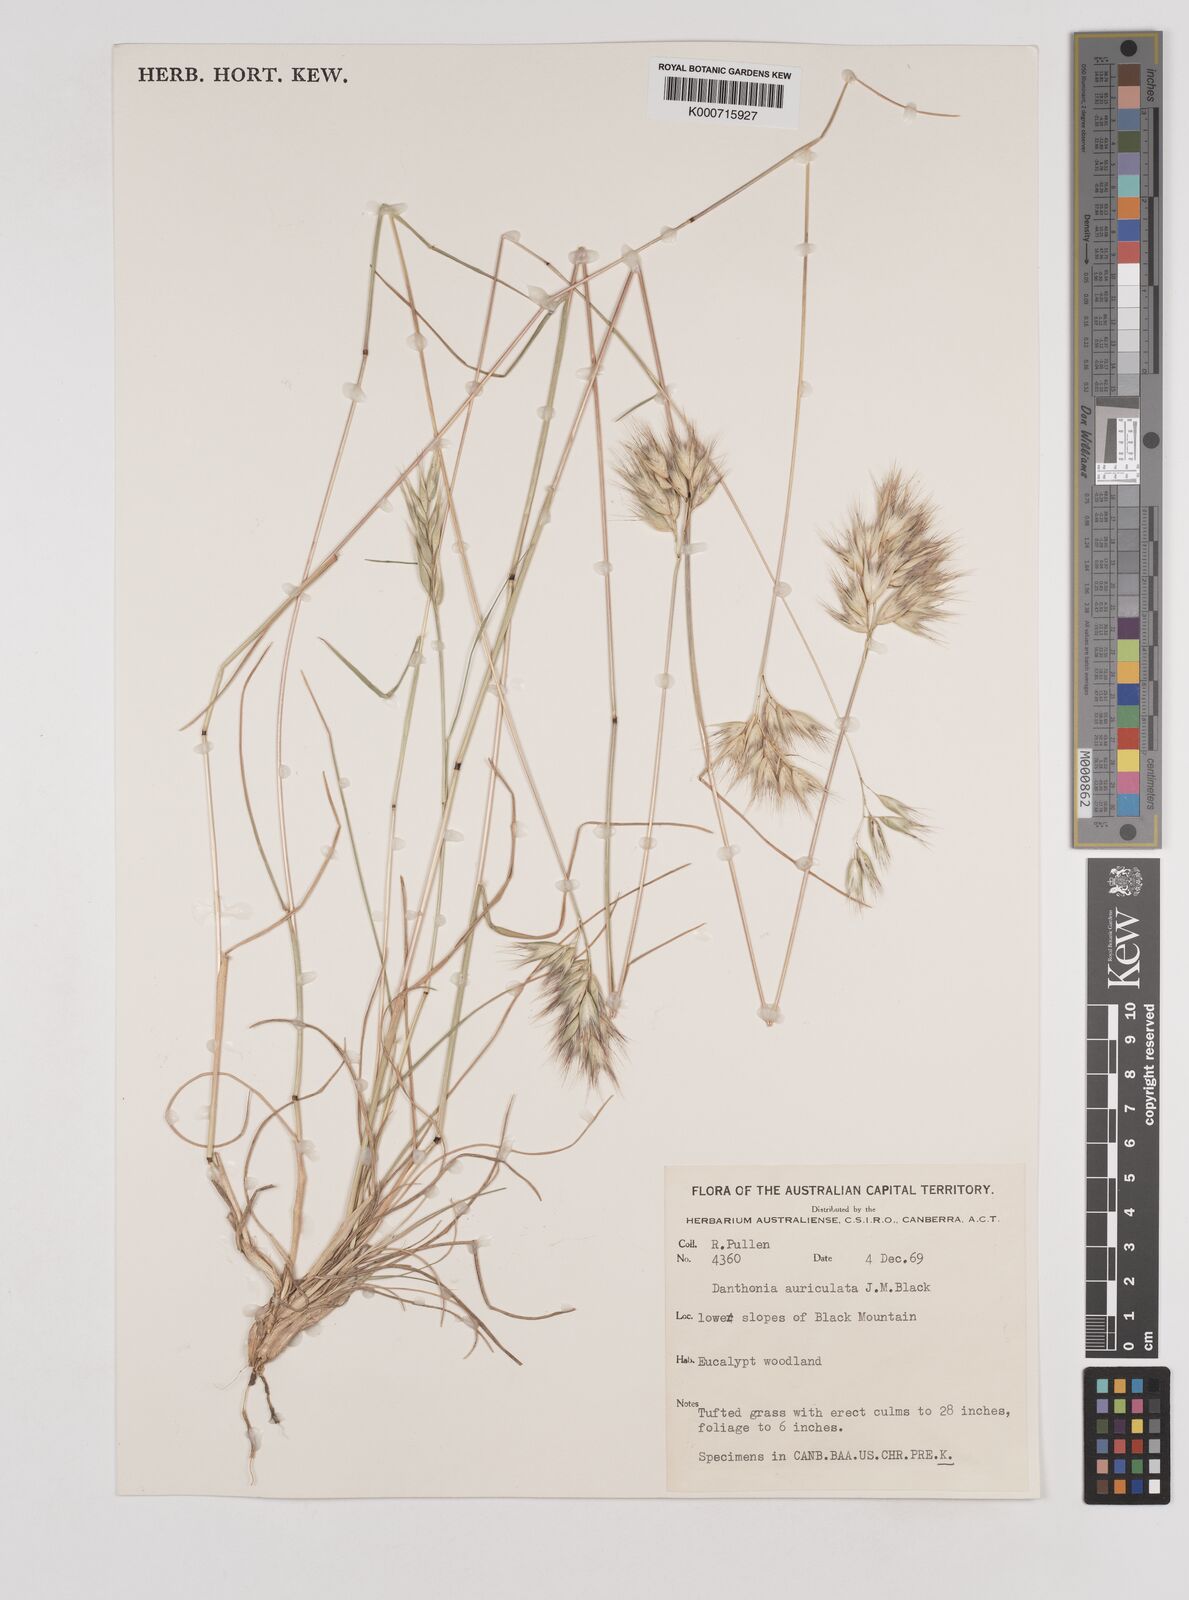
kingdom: Plantae
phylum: Tracheophyta
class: Liliopsida
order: Poales
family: Poaceae
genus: Rytidosperma
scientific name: Rytidosperma auriculatum
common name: Lobed wallaby grass
